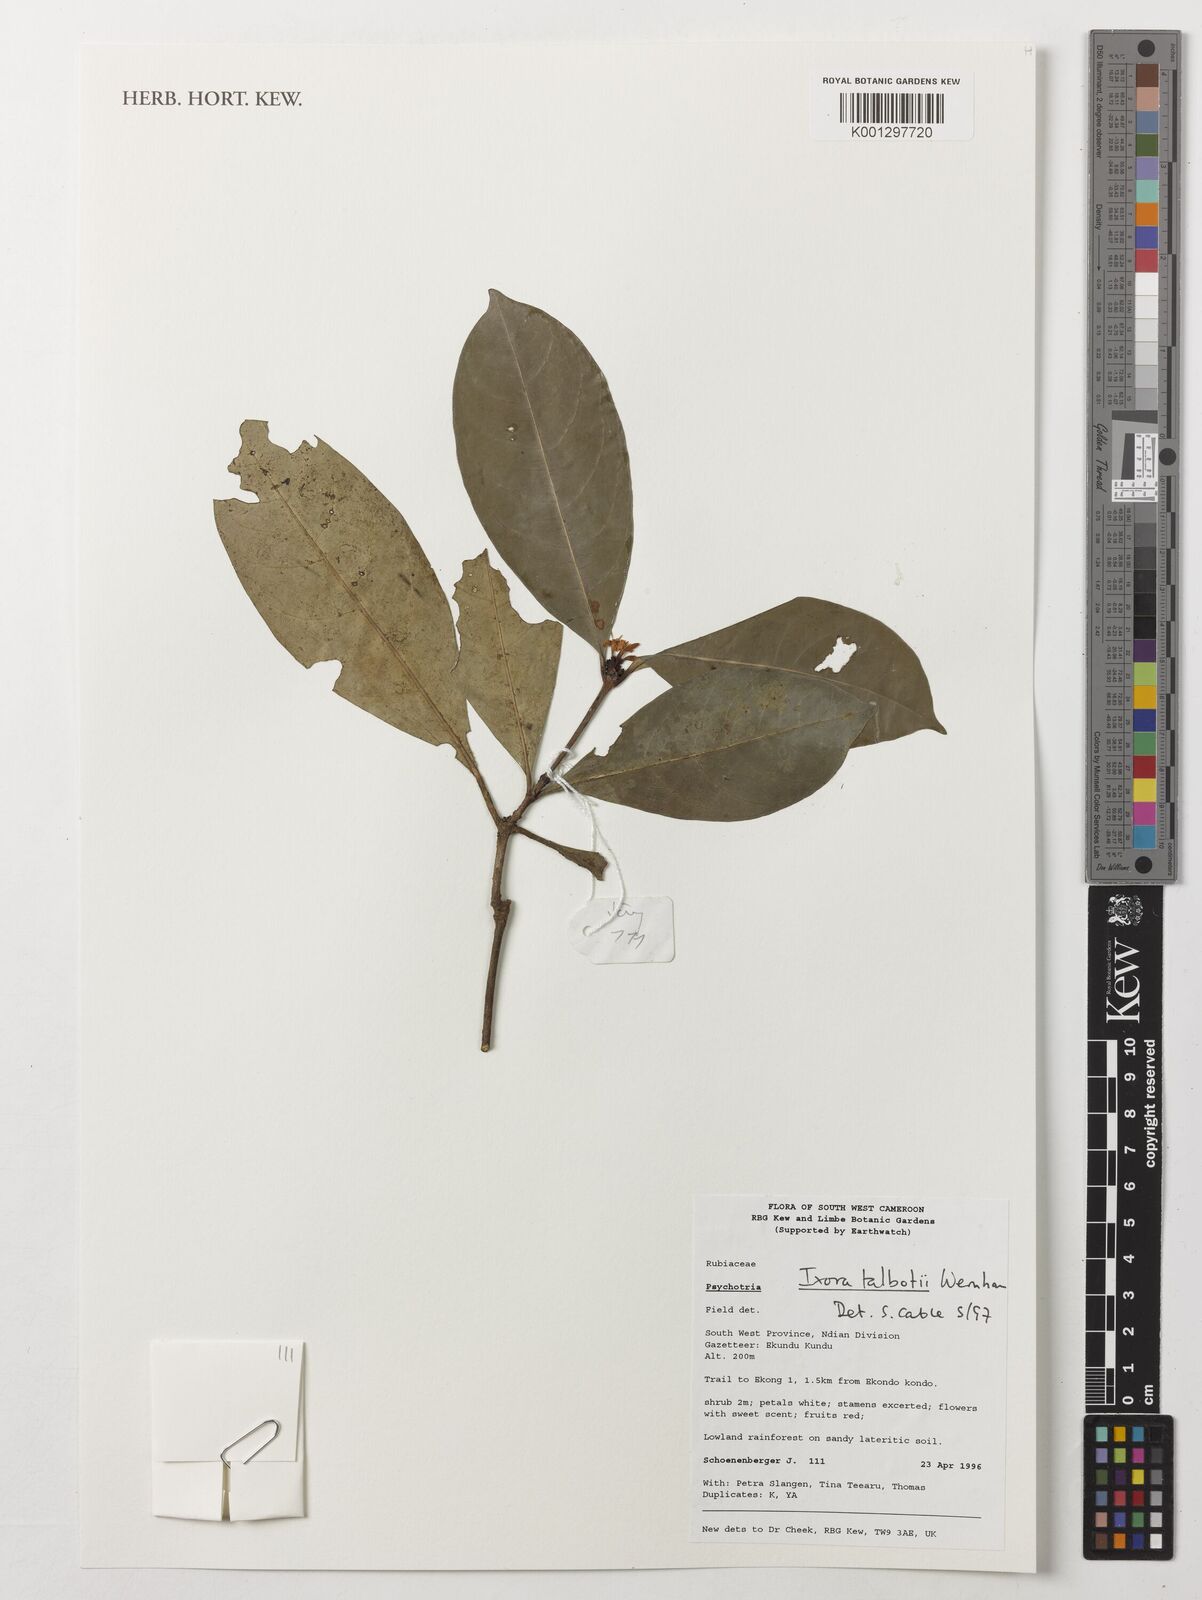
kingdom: Plantae
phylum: Tracheophyta
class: Magnoliopsida
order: Gentianales
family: Rubiaceae
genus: Ixora
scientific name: Ixora guineensis
